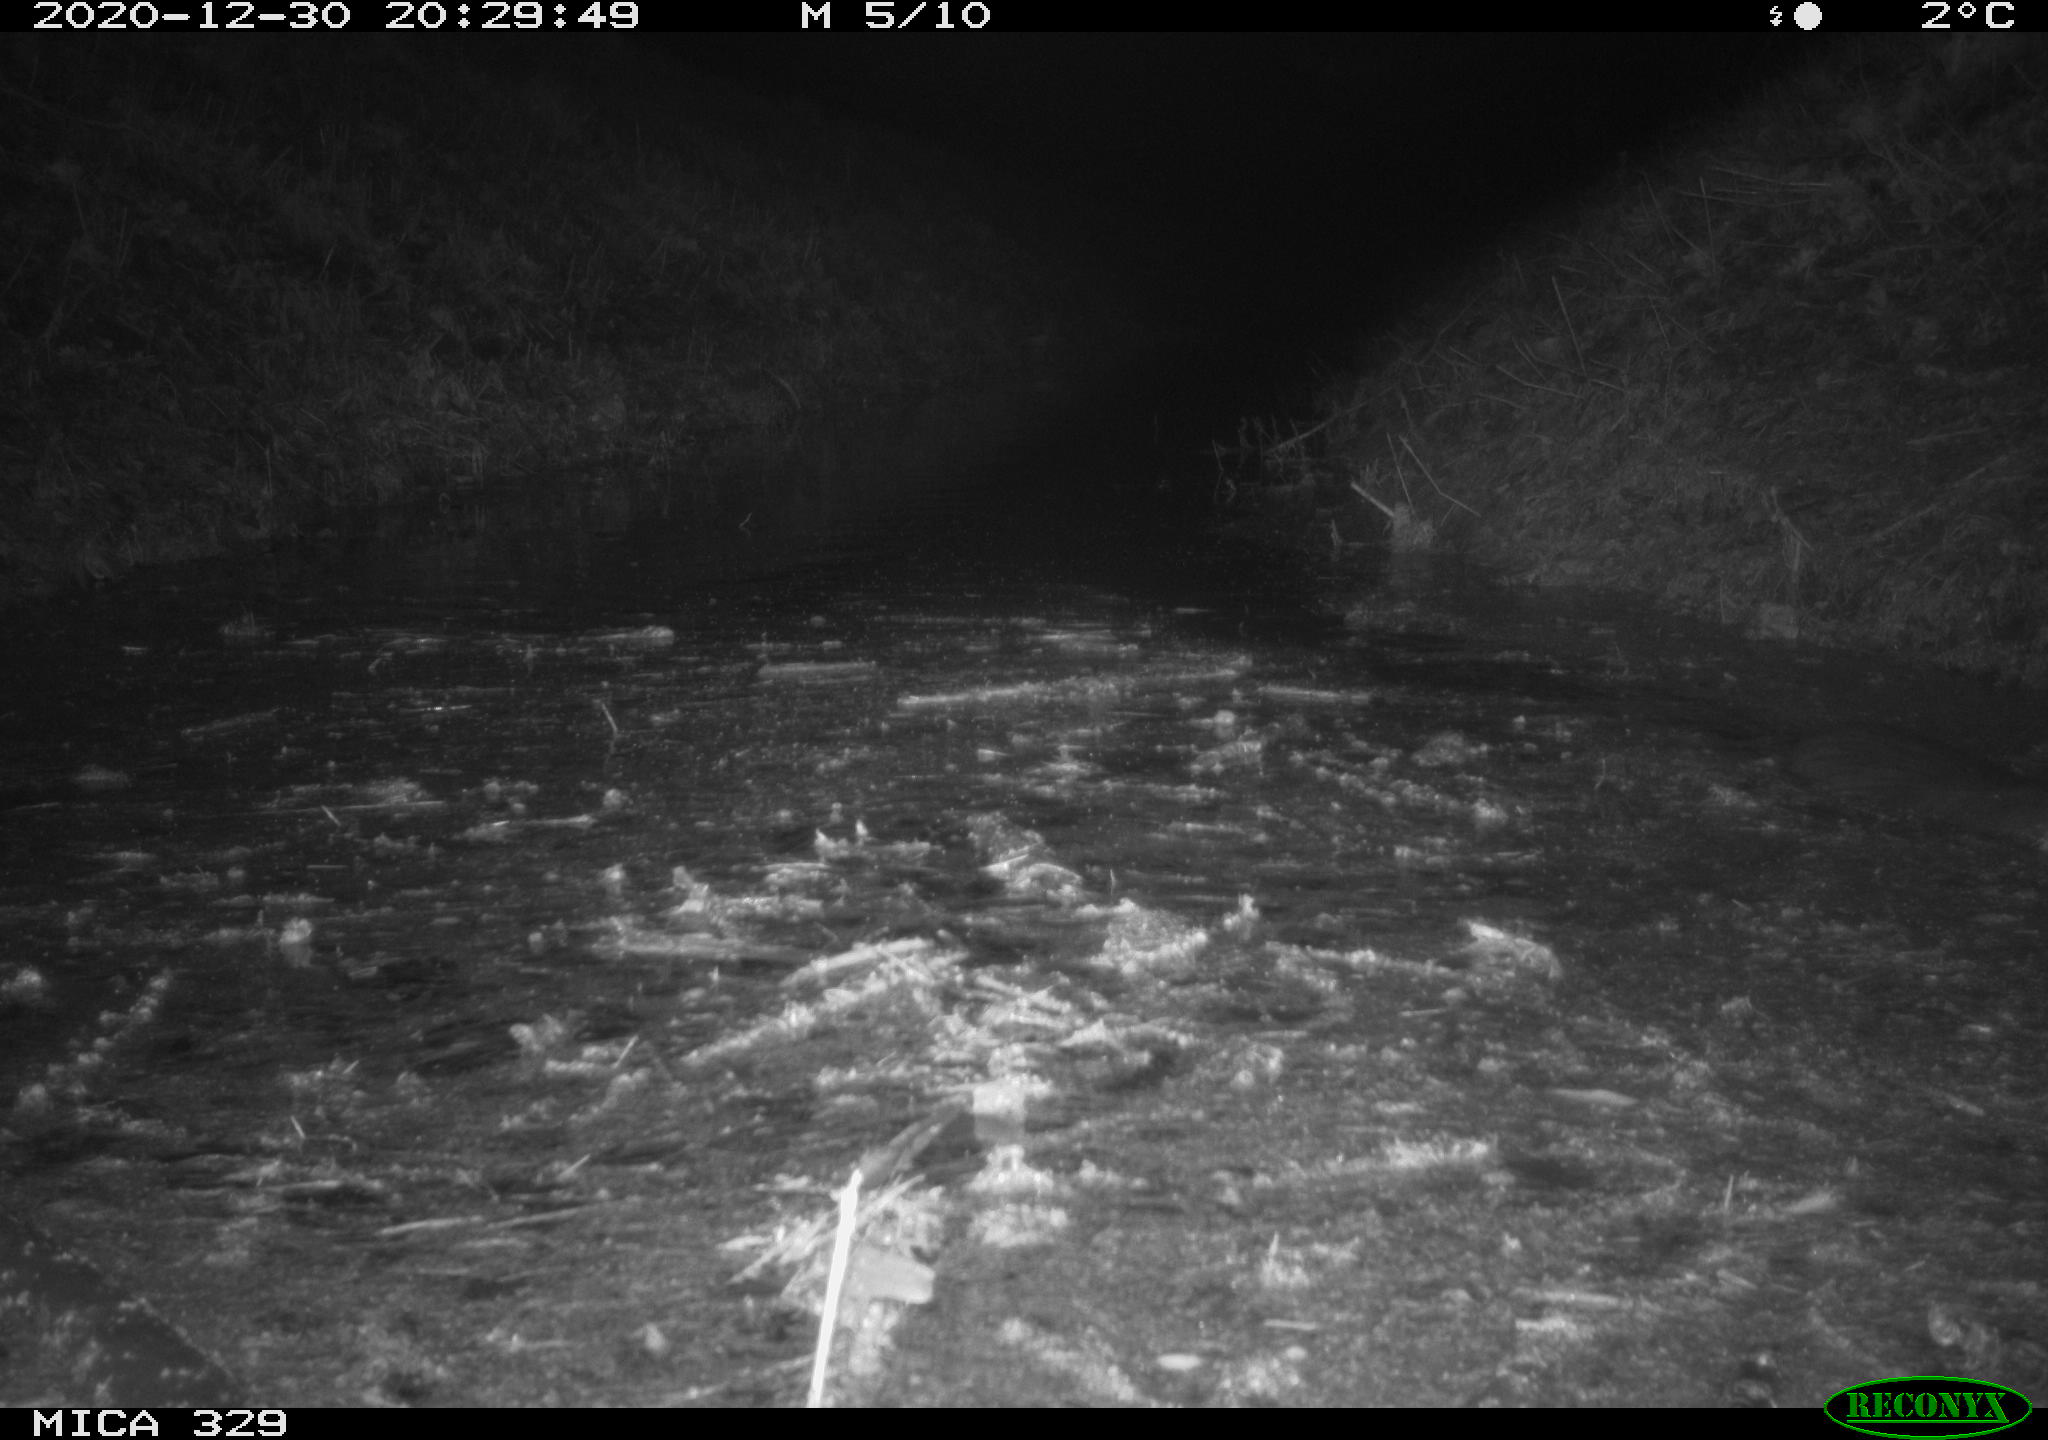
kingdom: Animalia
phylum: Chordata
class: Mammalia
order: Rodentia
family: Myocastoridae
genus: Myocastor
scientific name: Myocastor coypus
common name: Coypu
